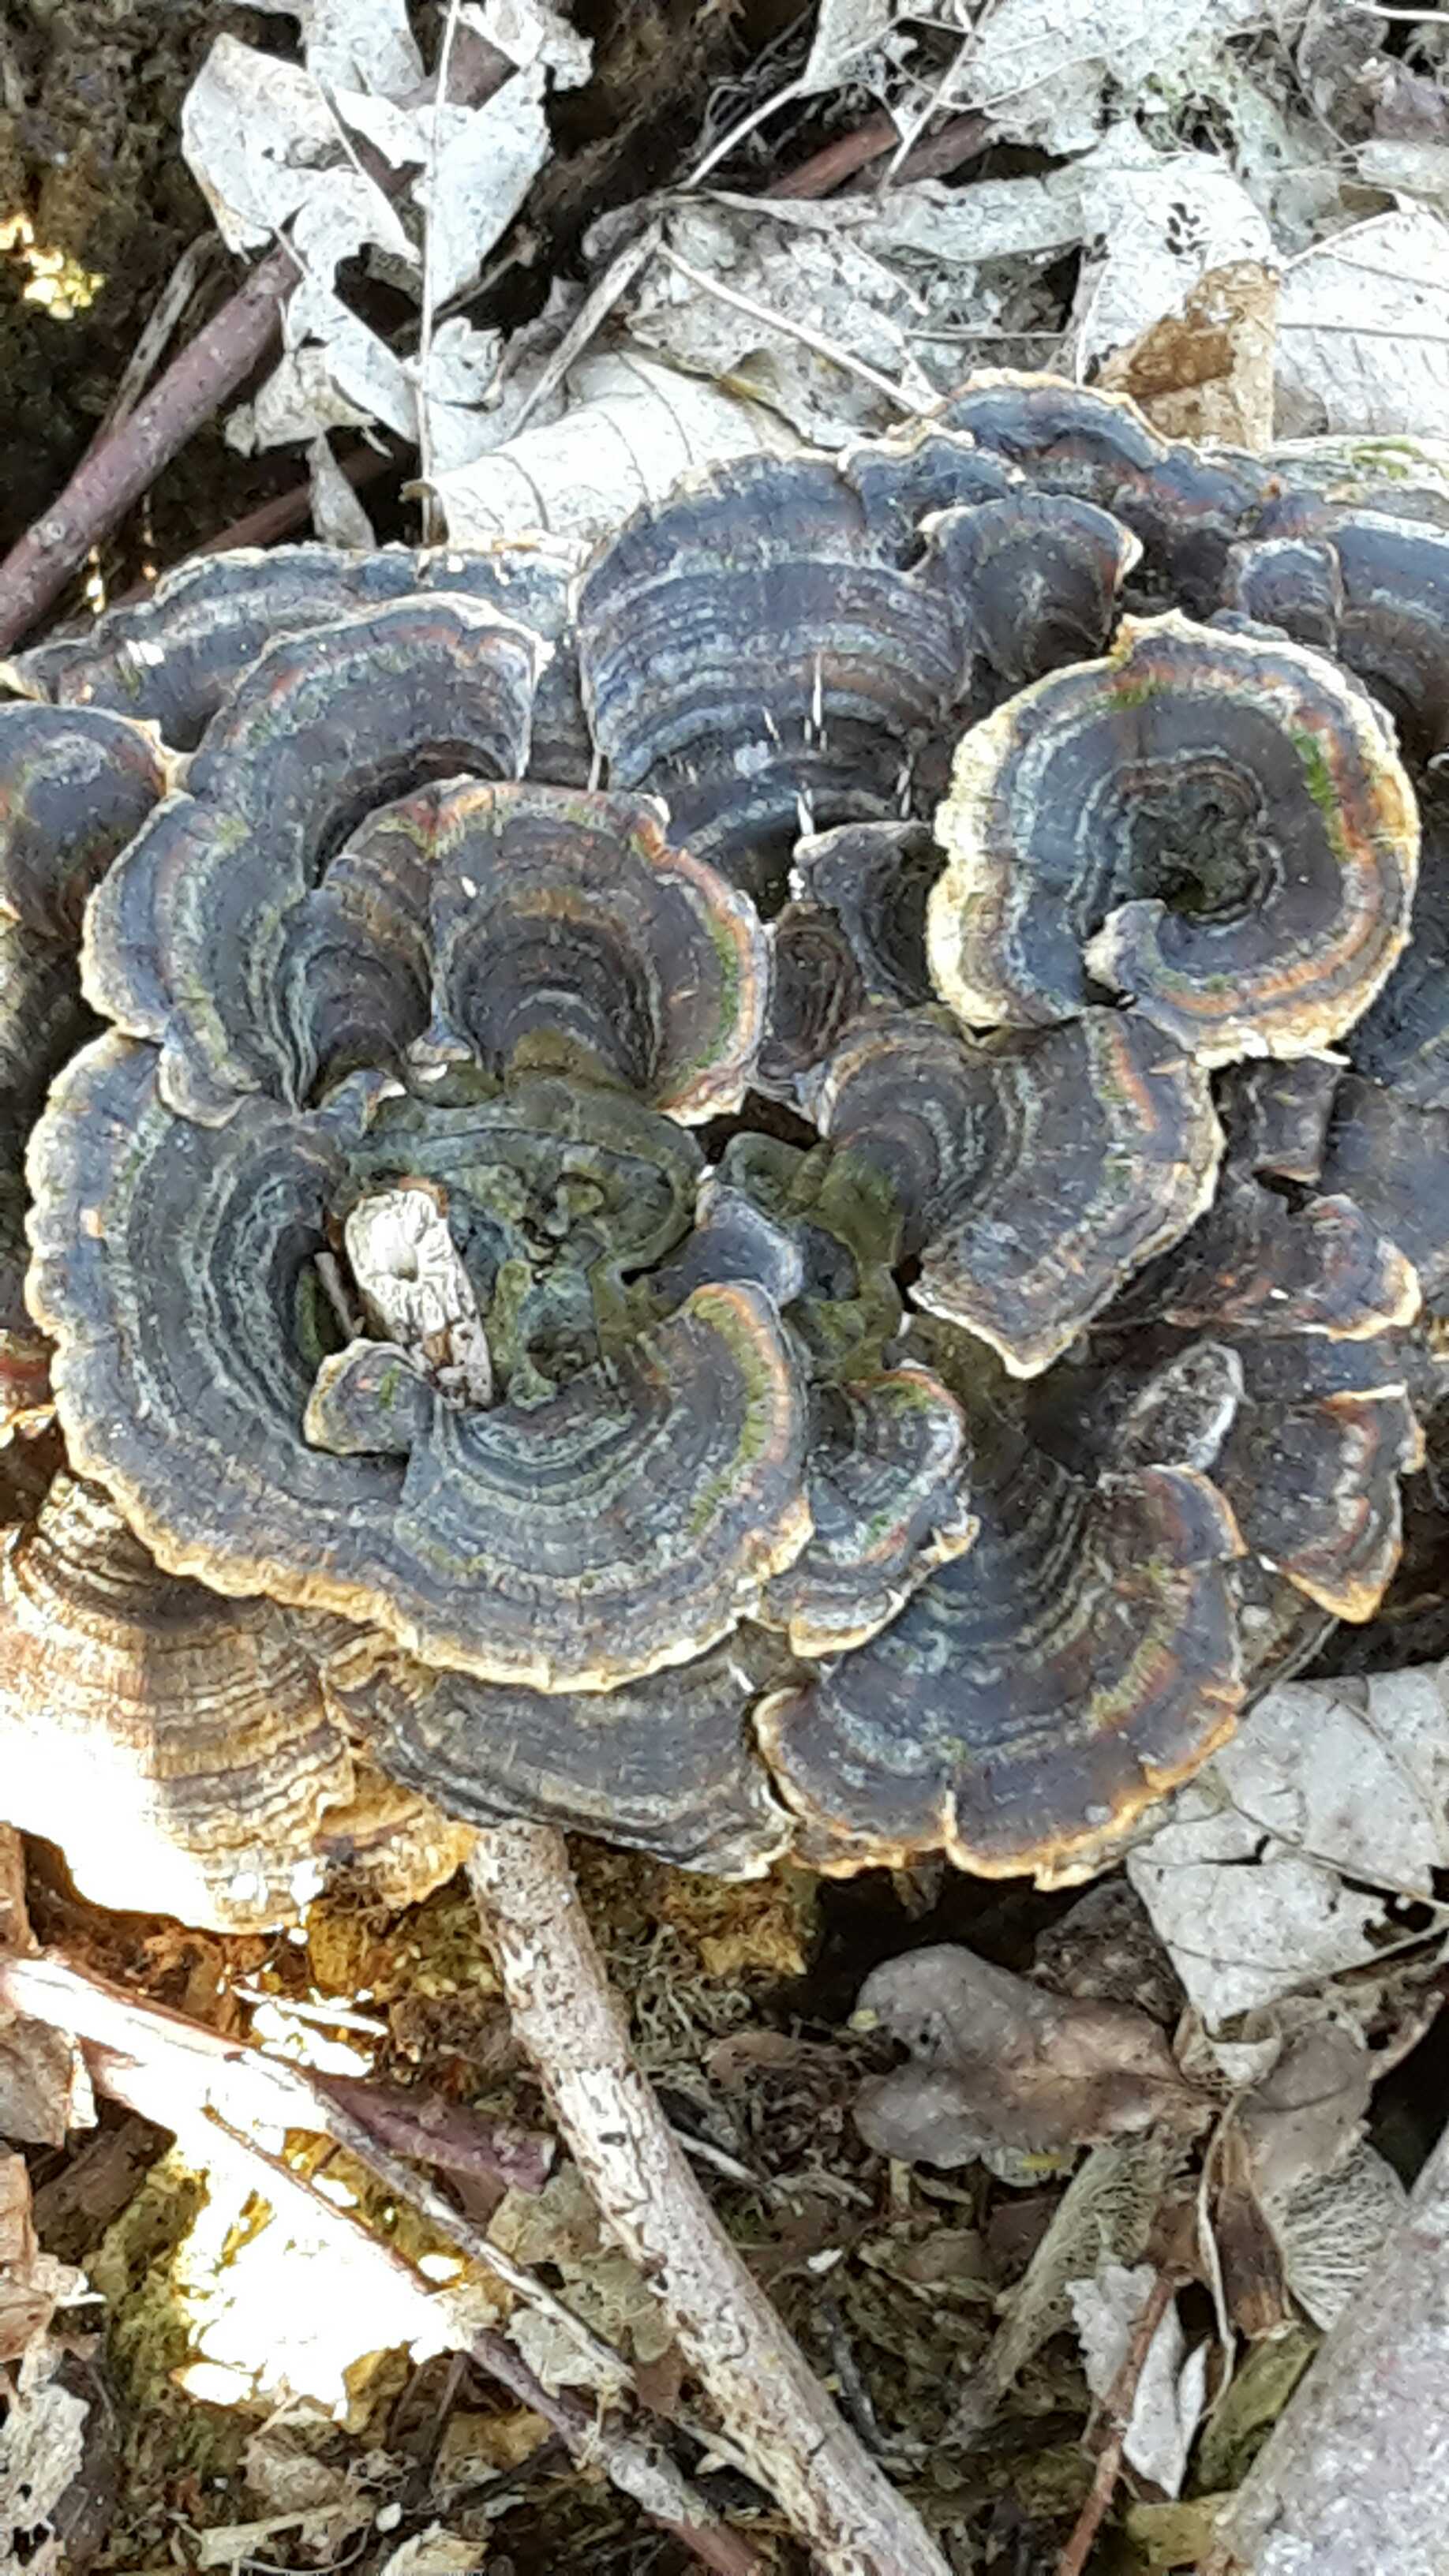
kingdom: Fungi
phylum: Basidiomycota
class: Agaricomycetes
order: Polyporales
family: Polyporaceae
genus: Trametes
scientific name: Trametes versicolor
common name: broget læderporesvamp
